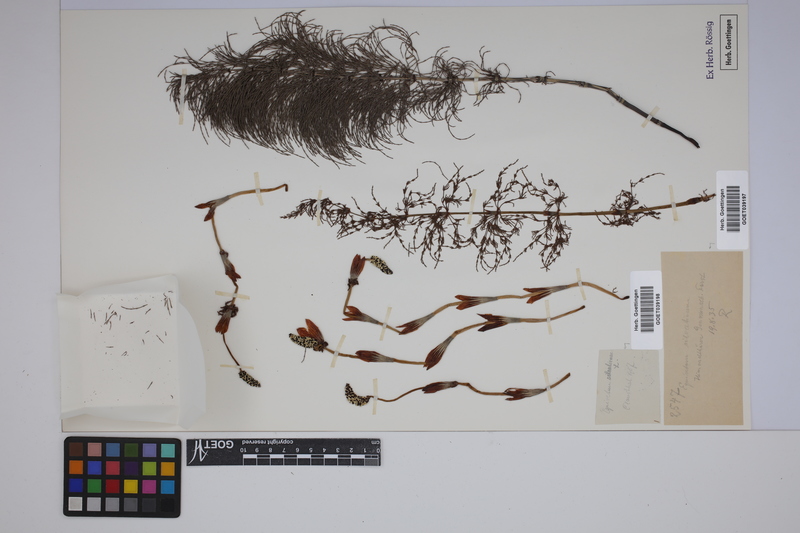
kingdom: Plantae
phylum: Tracheophyta
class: Polypodiopsida
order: Equisetales
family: Equisetaceae
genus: Equisetum
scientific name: Equisetum sylvaticum
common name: Wood horsetail
